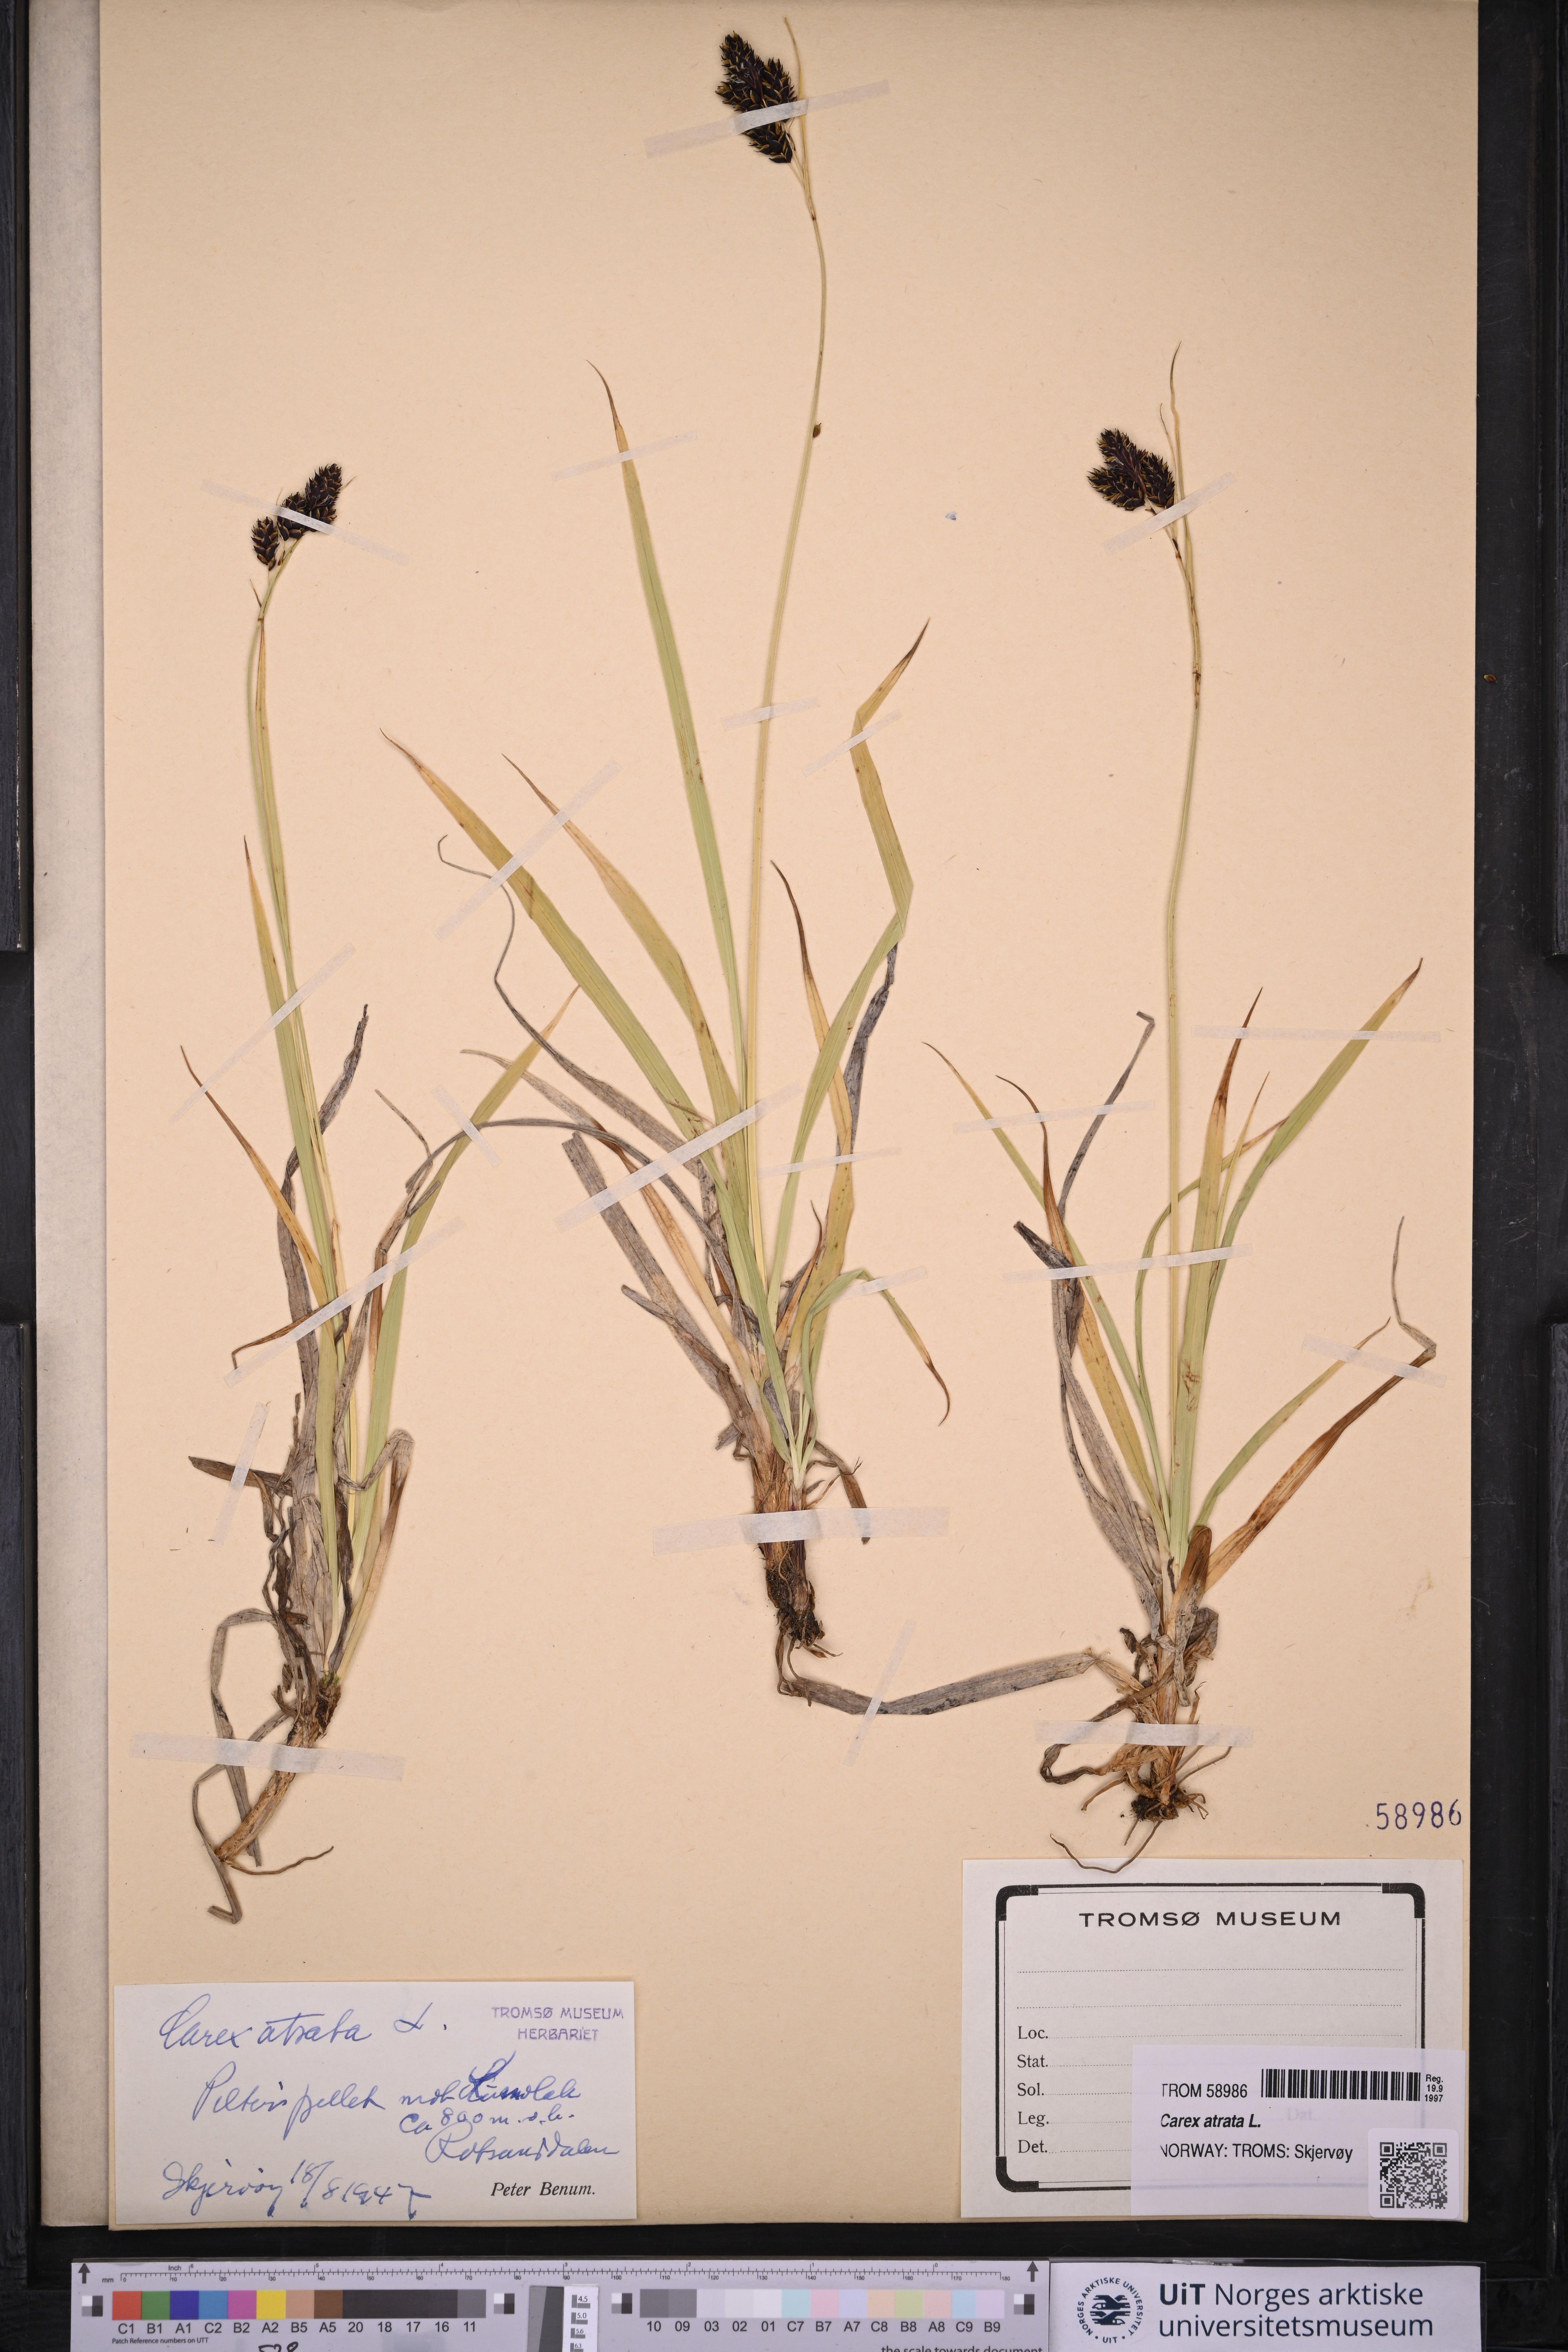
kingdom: Plantae
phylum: Tracheophyta
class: Liliopsida
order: Poales
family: Cyperaceae
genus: Carex
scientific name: Carex atrata
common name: Black alpine sedge
